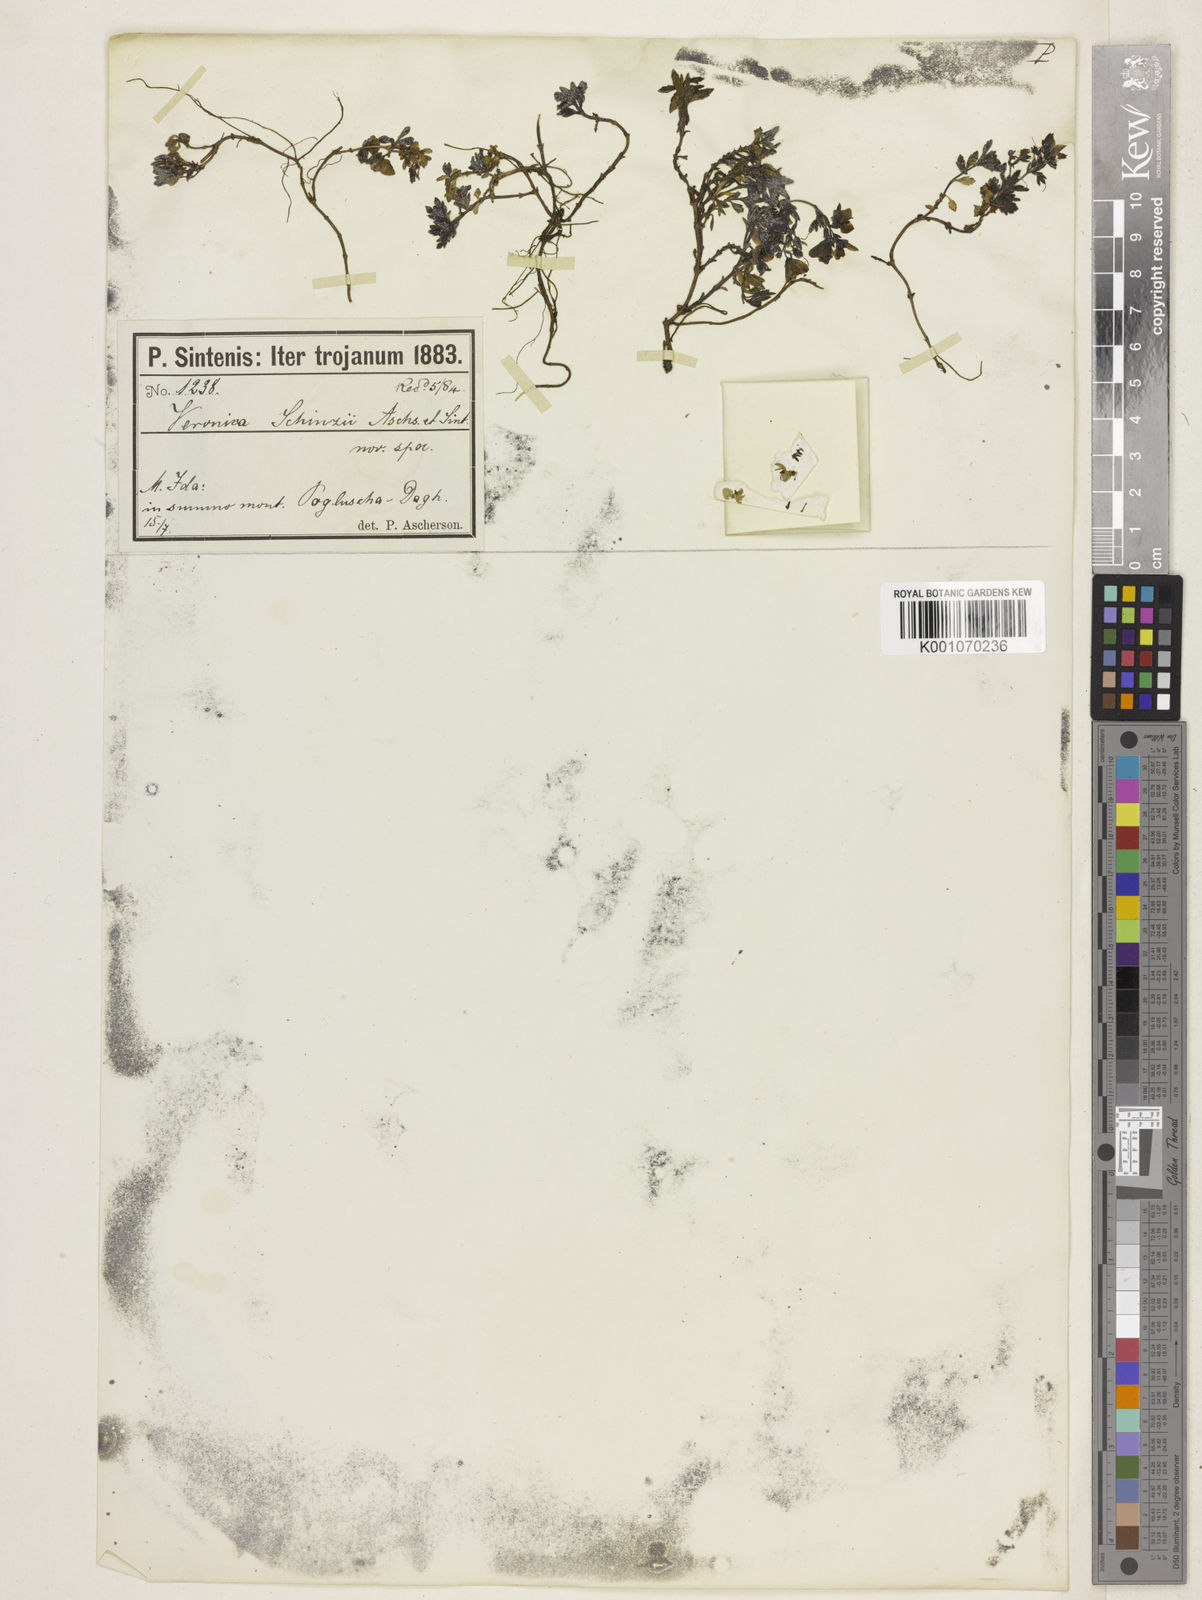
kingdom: Plantae
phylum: Tracheophyta
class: Magnoliopsida
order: Lamiales
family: Plantaginaceae
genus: Veronica
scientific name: Veronica
